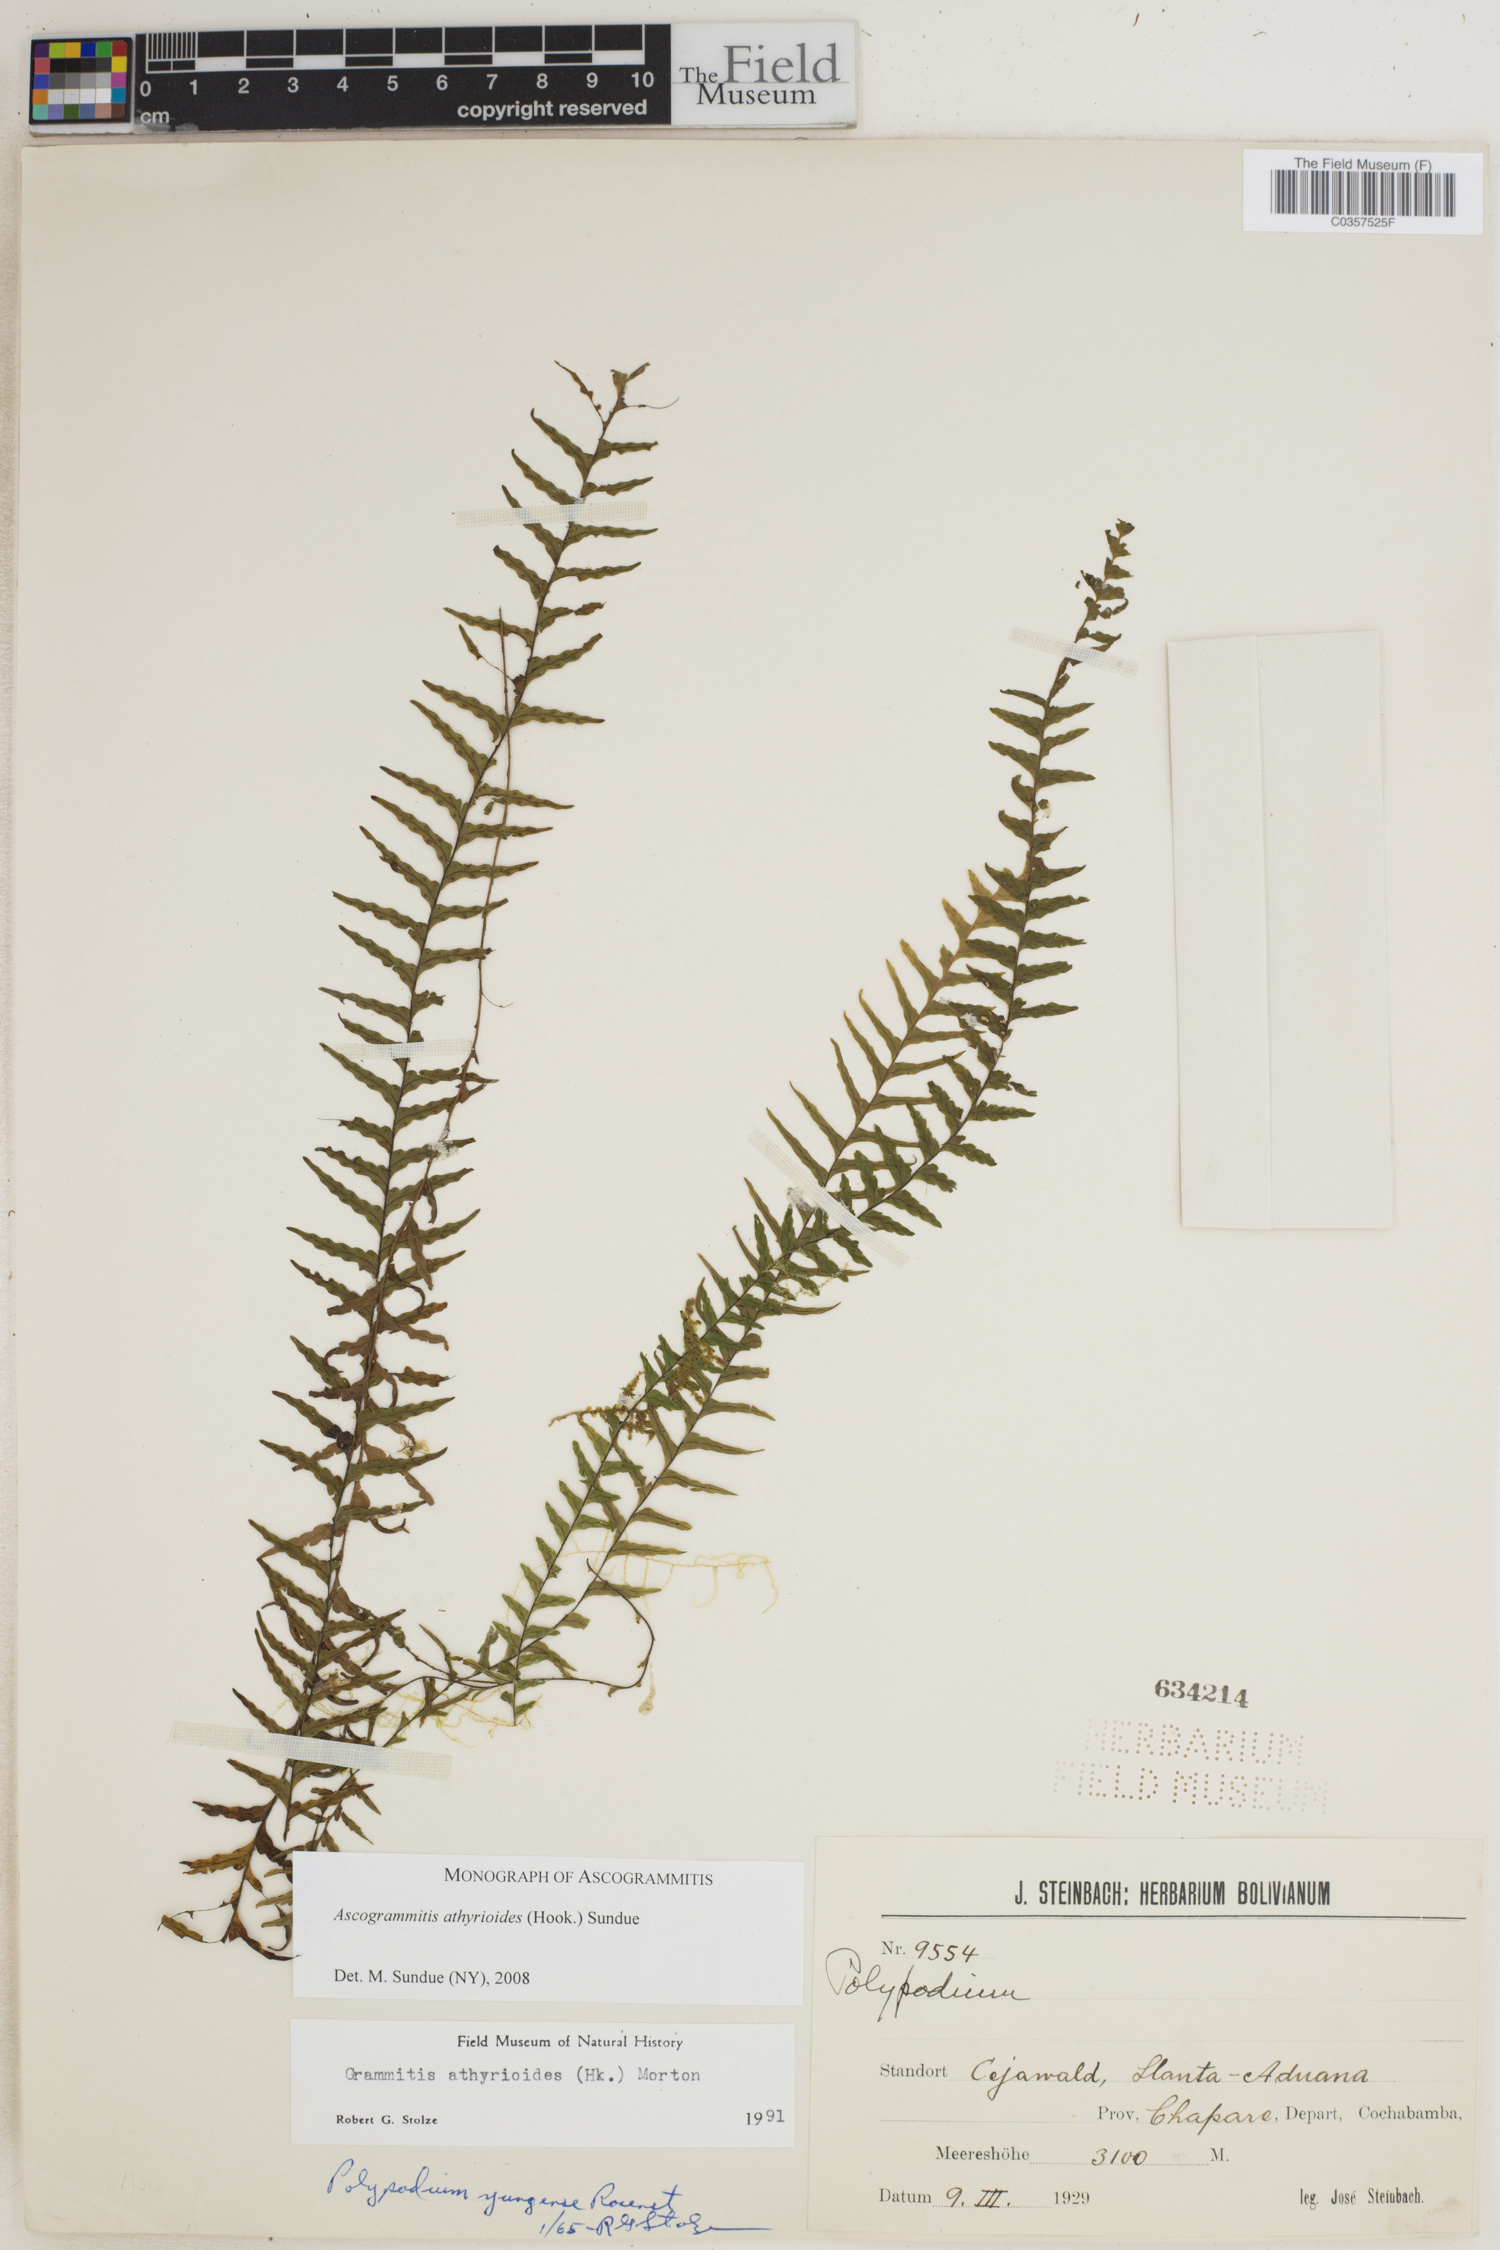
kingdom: Plantae
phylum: Tracheophyta
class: Polypodiopsida
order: Polypodiales
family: Polypodiaceae
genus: Ascogrammitis
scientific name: Ascogrammitis athyrioides
